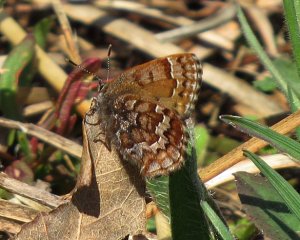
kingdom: Animalia
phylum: Arthropoda
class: Insecta
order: Lepidoptera
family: Lycaenidae
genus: Incisalia
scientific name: Incisalia niphon
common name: Eastern Pine Elfin
